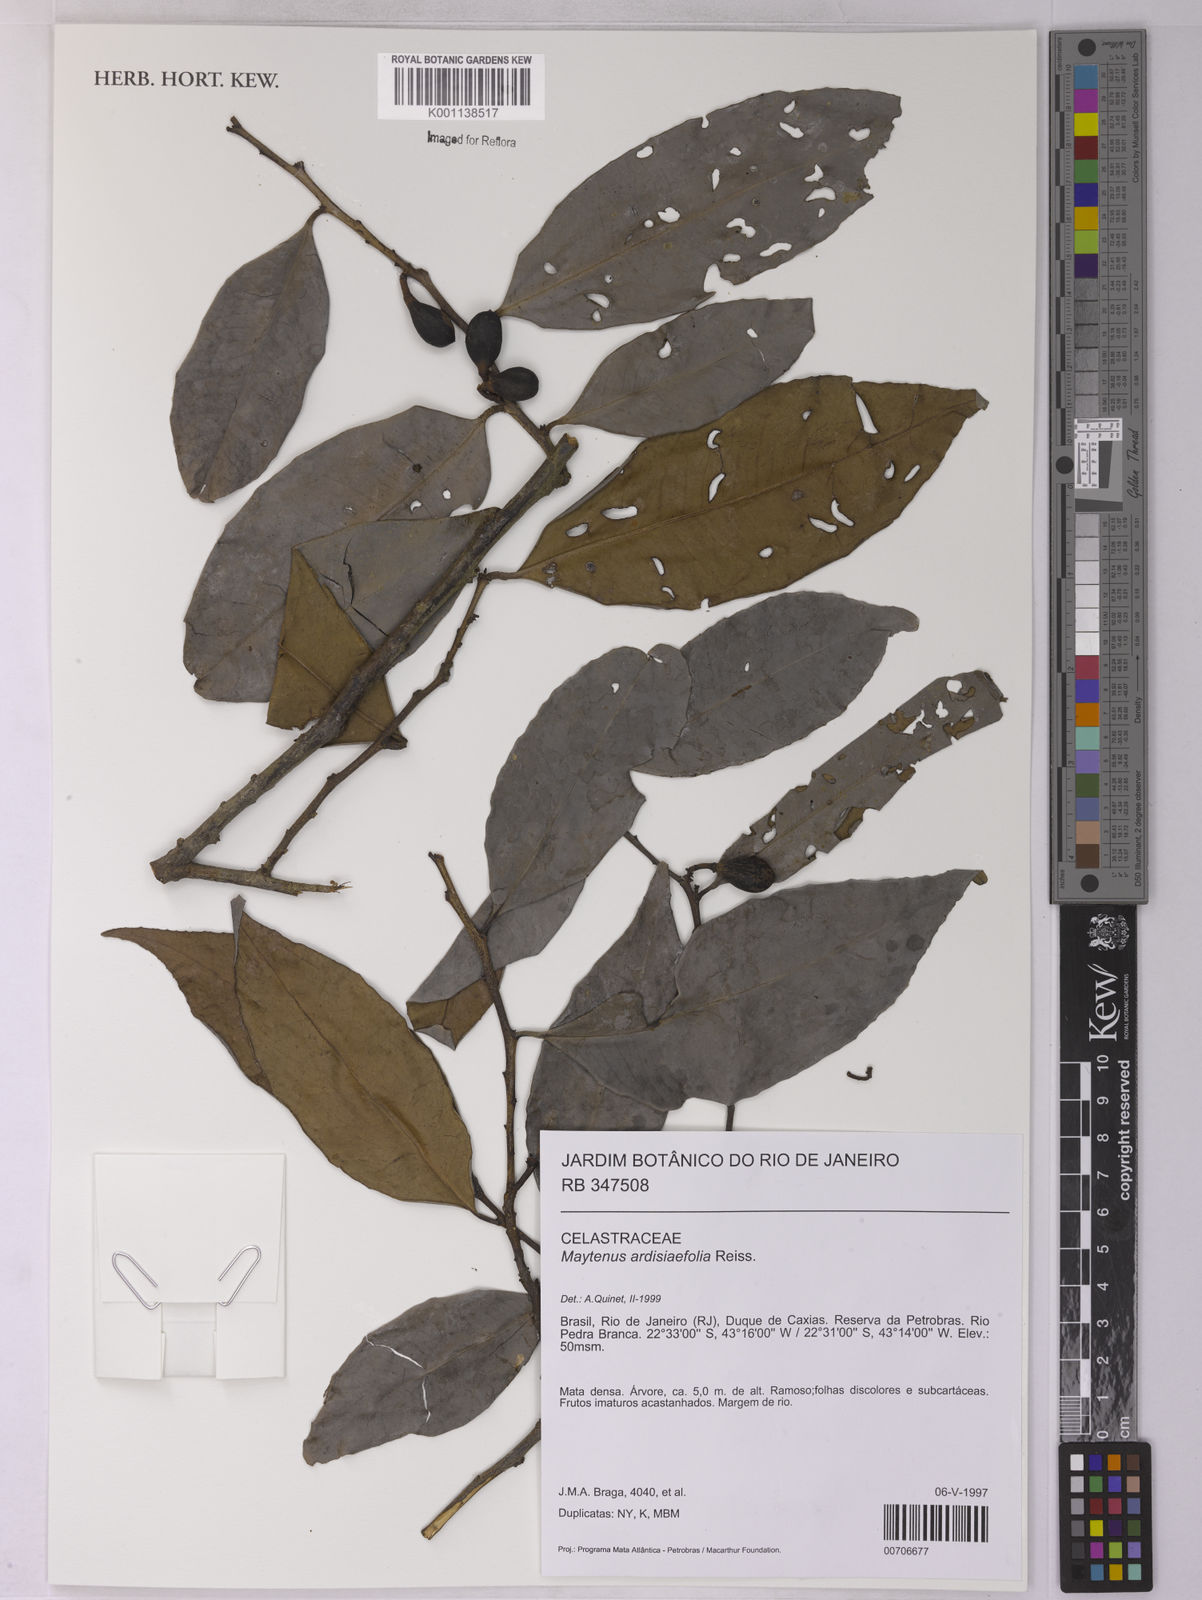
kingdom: Plantae
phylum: Tracheophyta
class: Magnoliopsida
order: Celastrales
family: Celastraceae
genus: Monteverdia
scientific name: Monteverdia ardisiifolia
